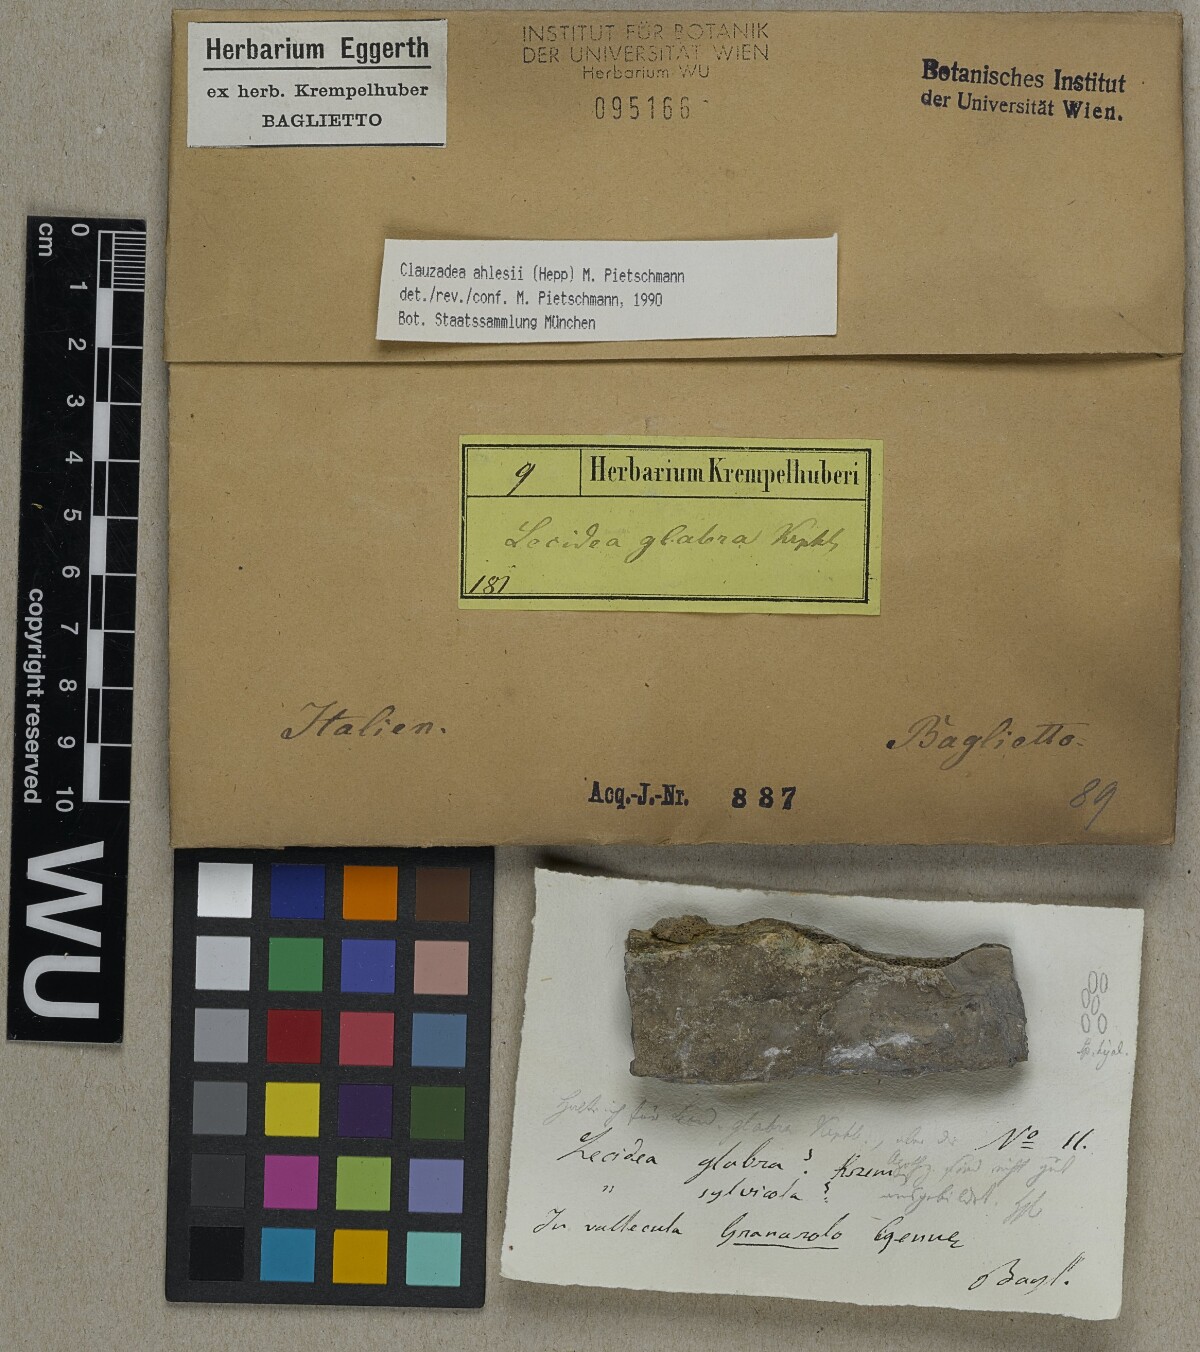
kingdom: Fungi
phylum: Ascomycota
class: Lecanoromycetes
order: Lecideales
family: Porpidiaceae
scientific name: Porpidiaceae
